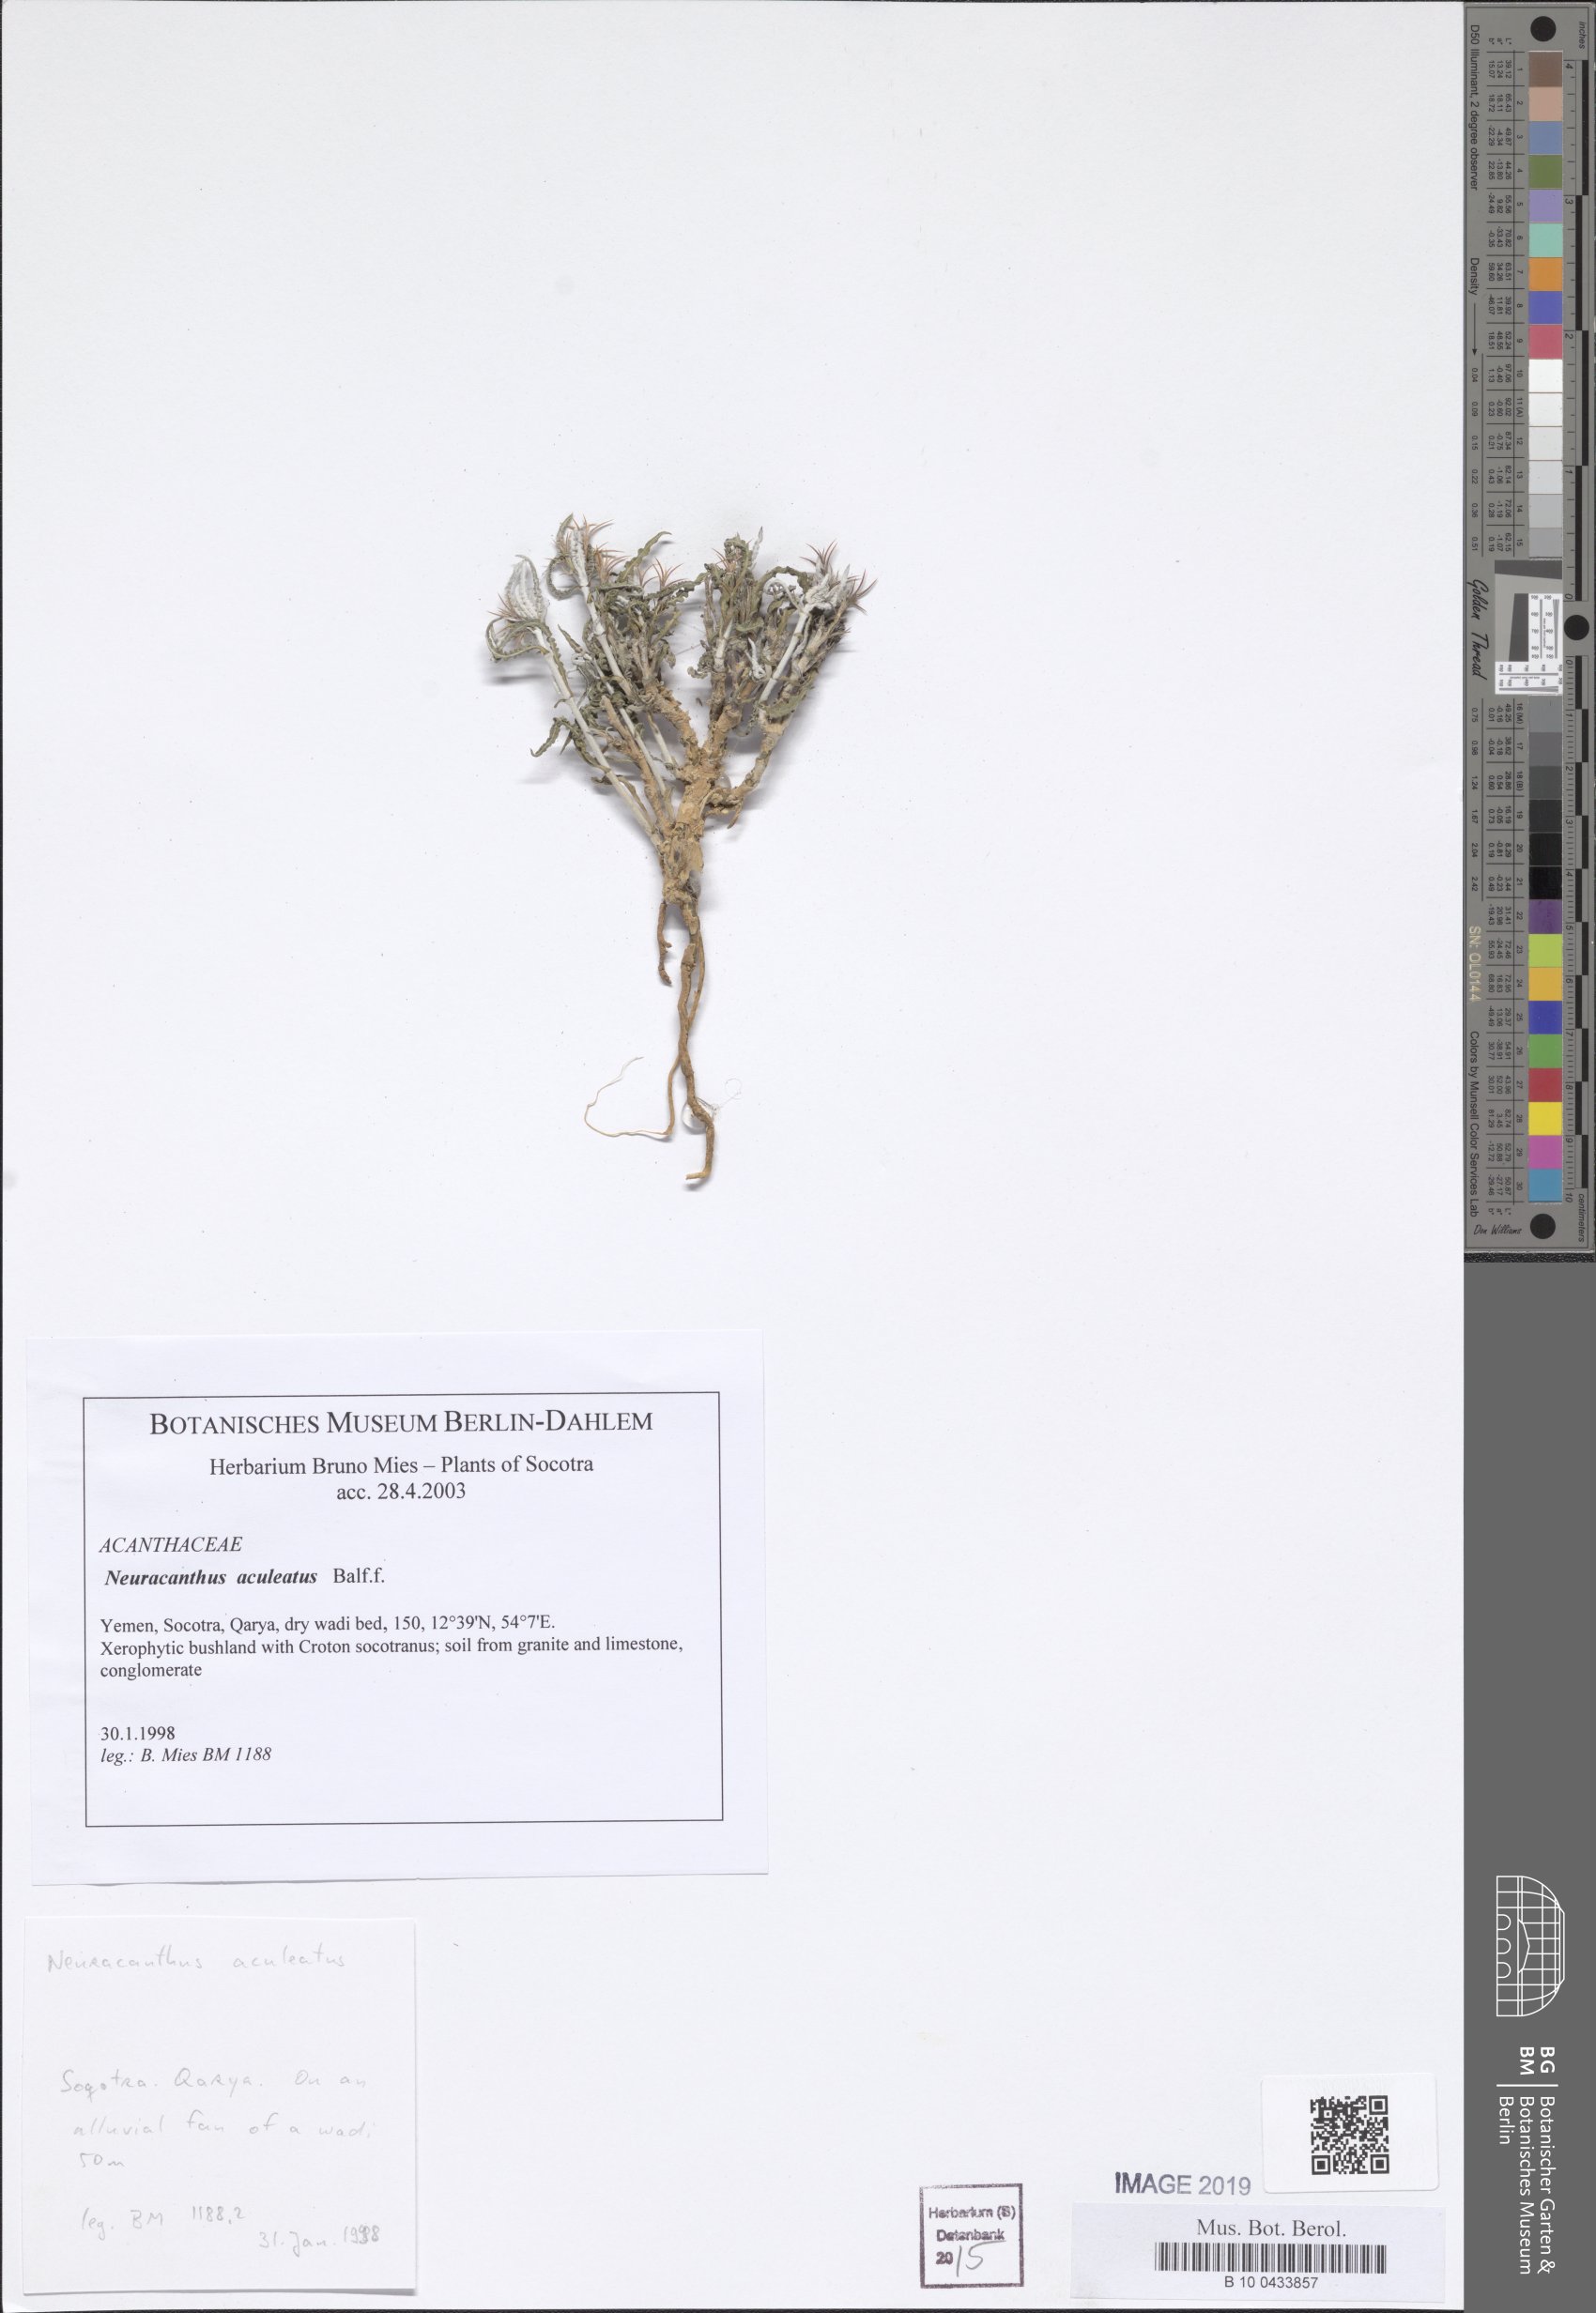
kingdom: Plantae
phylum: Tracheophyta
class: Magnoliopsida
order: Lamiales
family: Acanthaceae
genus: Neuracanthus
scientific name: Neuracanthus aculeatus
